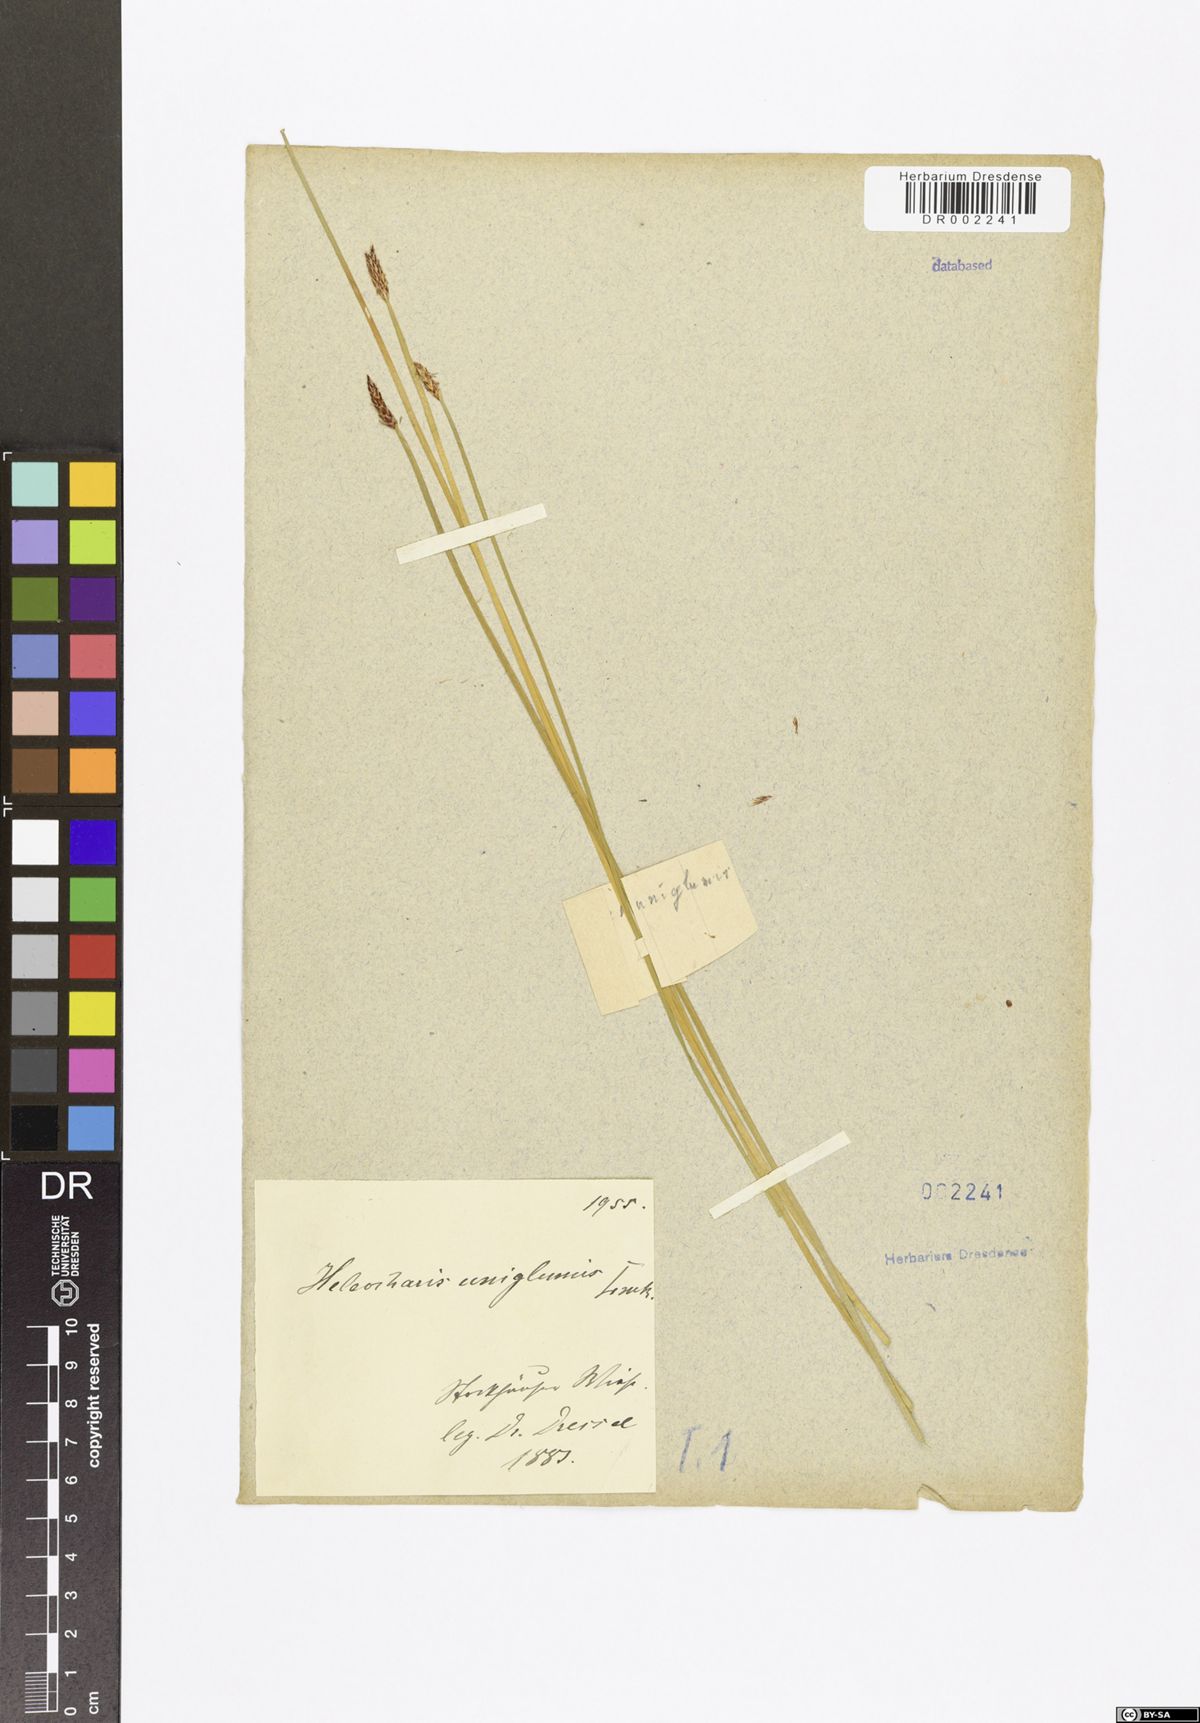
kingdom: Plantae
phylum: Tracheophyta
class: Liliopsida
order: Poales
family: Cyperaceae
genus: Eleocharis
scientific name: Eleocharis uniglumis
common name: Slender spike-rush
